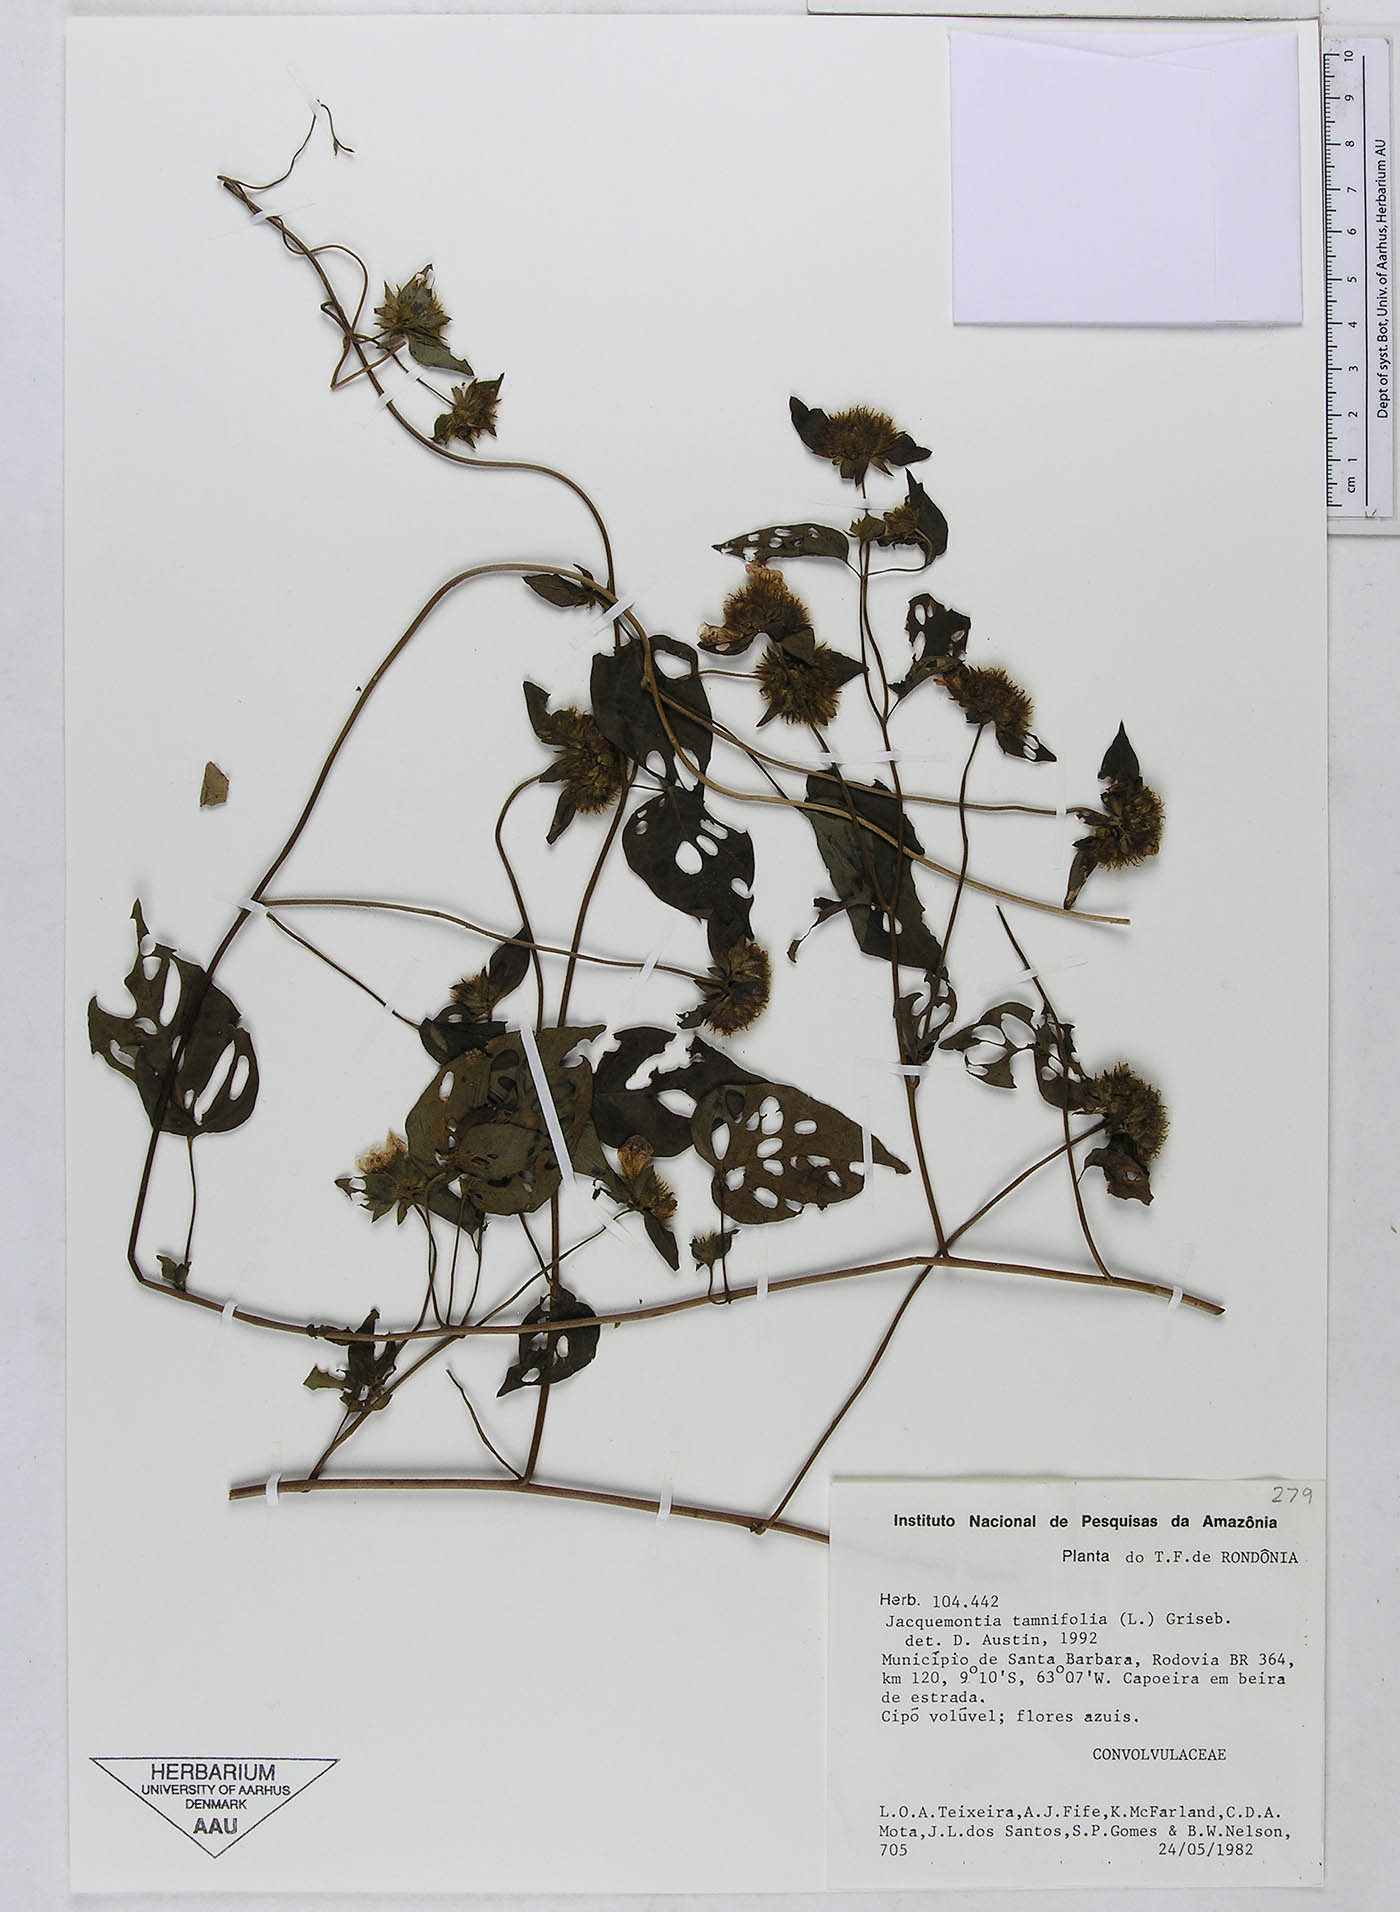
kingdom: Plantae
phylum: Tracheophyta
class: Magnoliopsida
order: Solanales
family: Convolvulaceae
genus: Jacquemontia
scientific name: Jacquemontia tamnifolia
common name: Hairy clustervine
